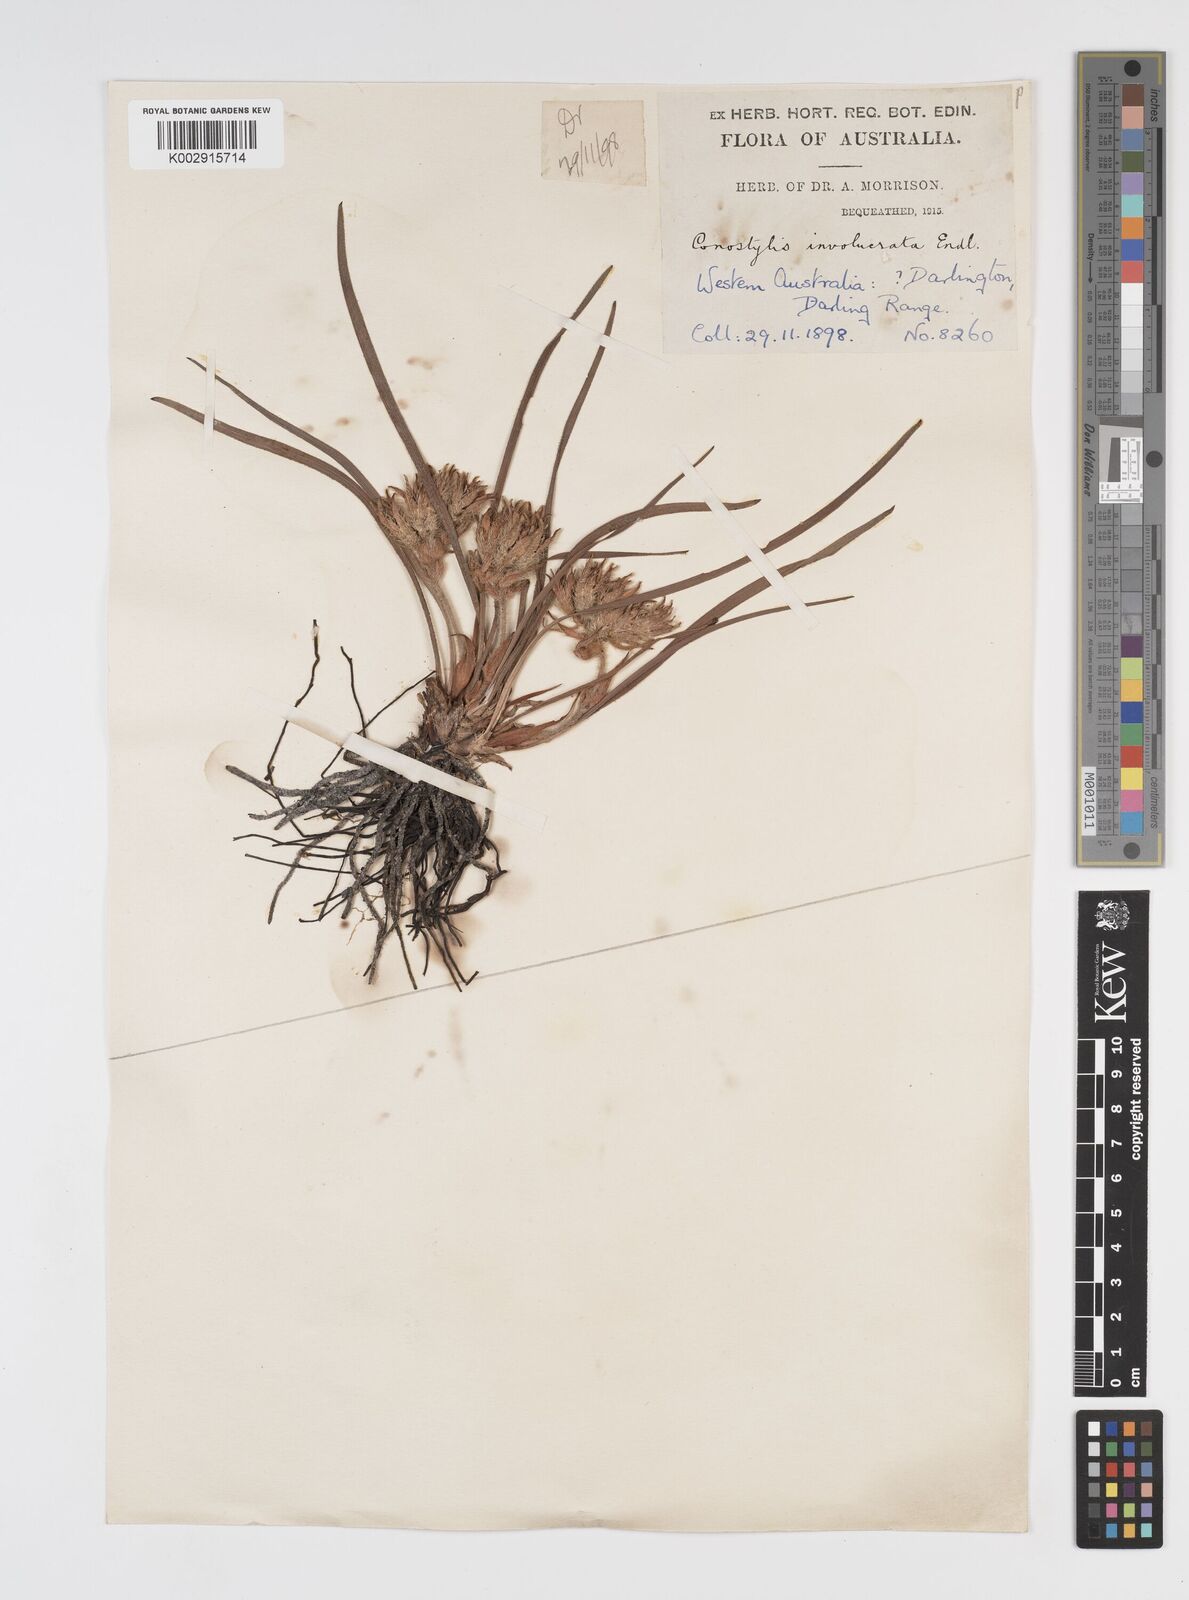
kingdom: Plantae
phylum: Tracheophyta
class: Liliopsida
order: Commelinales
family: Haemodoraceae
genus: Conostylis
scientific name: Conostylis juncea
